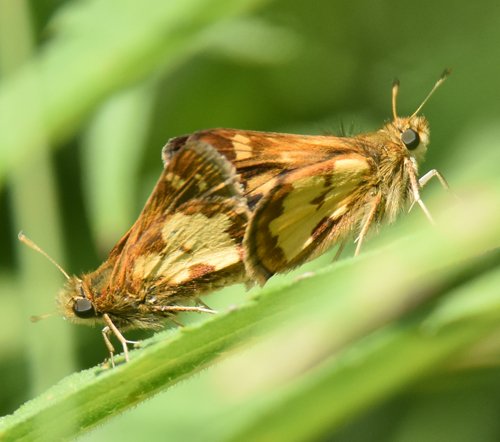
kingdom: Animalia
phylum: Arthropoda
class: Insecta
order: Lepidoptera
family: Hesperiidae
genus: Polites
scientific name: Polites coras
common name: Peck's Skipper
